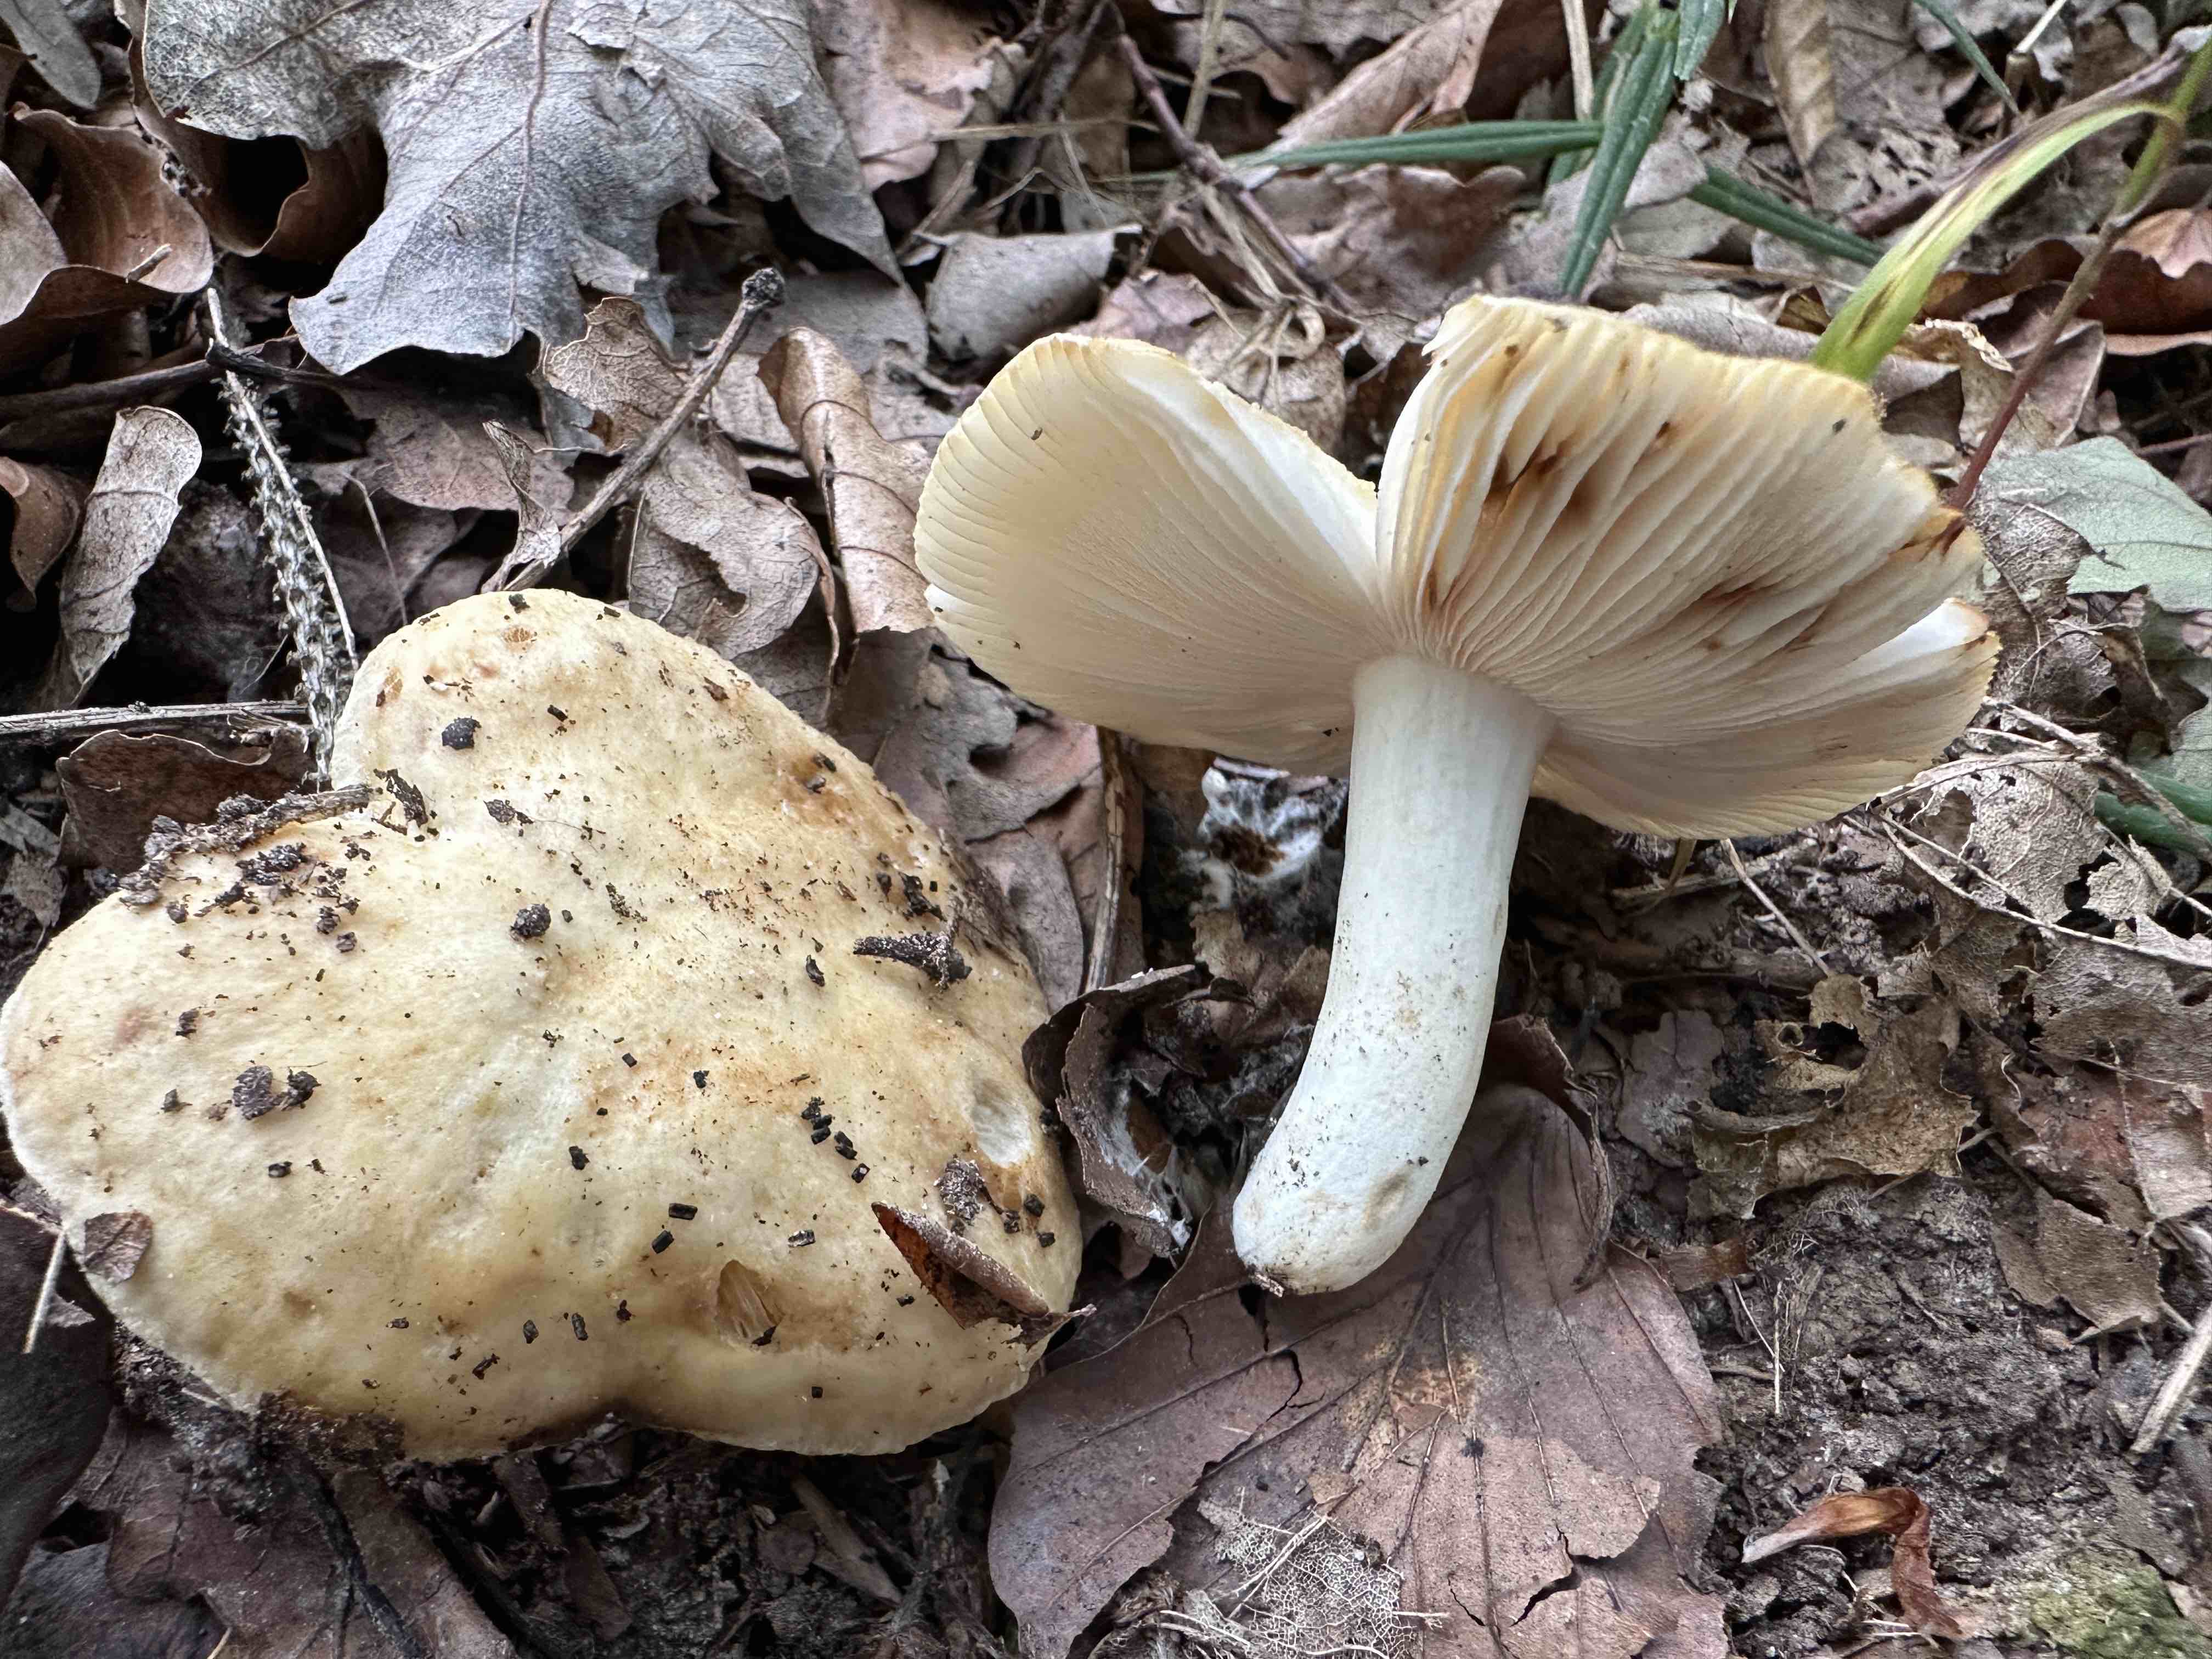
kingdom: Fungi
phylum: Basidiomycota
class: Agaricomycetes
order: Russulales
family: Russulaceae
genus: Russula
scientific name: Russula farinipes
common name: gul kam-skørhat
